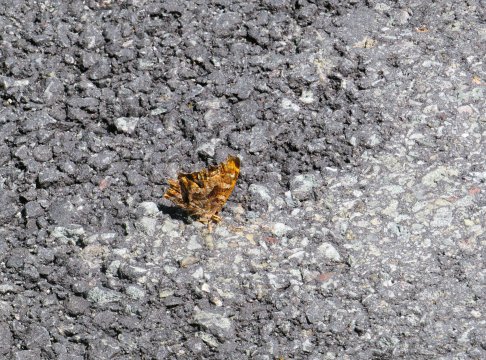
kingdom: Animalia
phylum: Arthropoda
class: Insecta
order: Lepidoptera
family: Nymphalidae
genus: Polygonia
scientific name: Polygonia comma
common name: Eastern Comma
